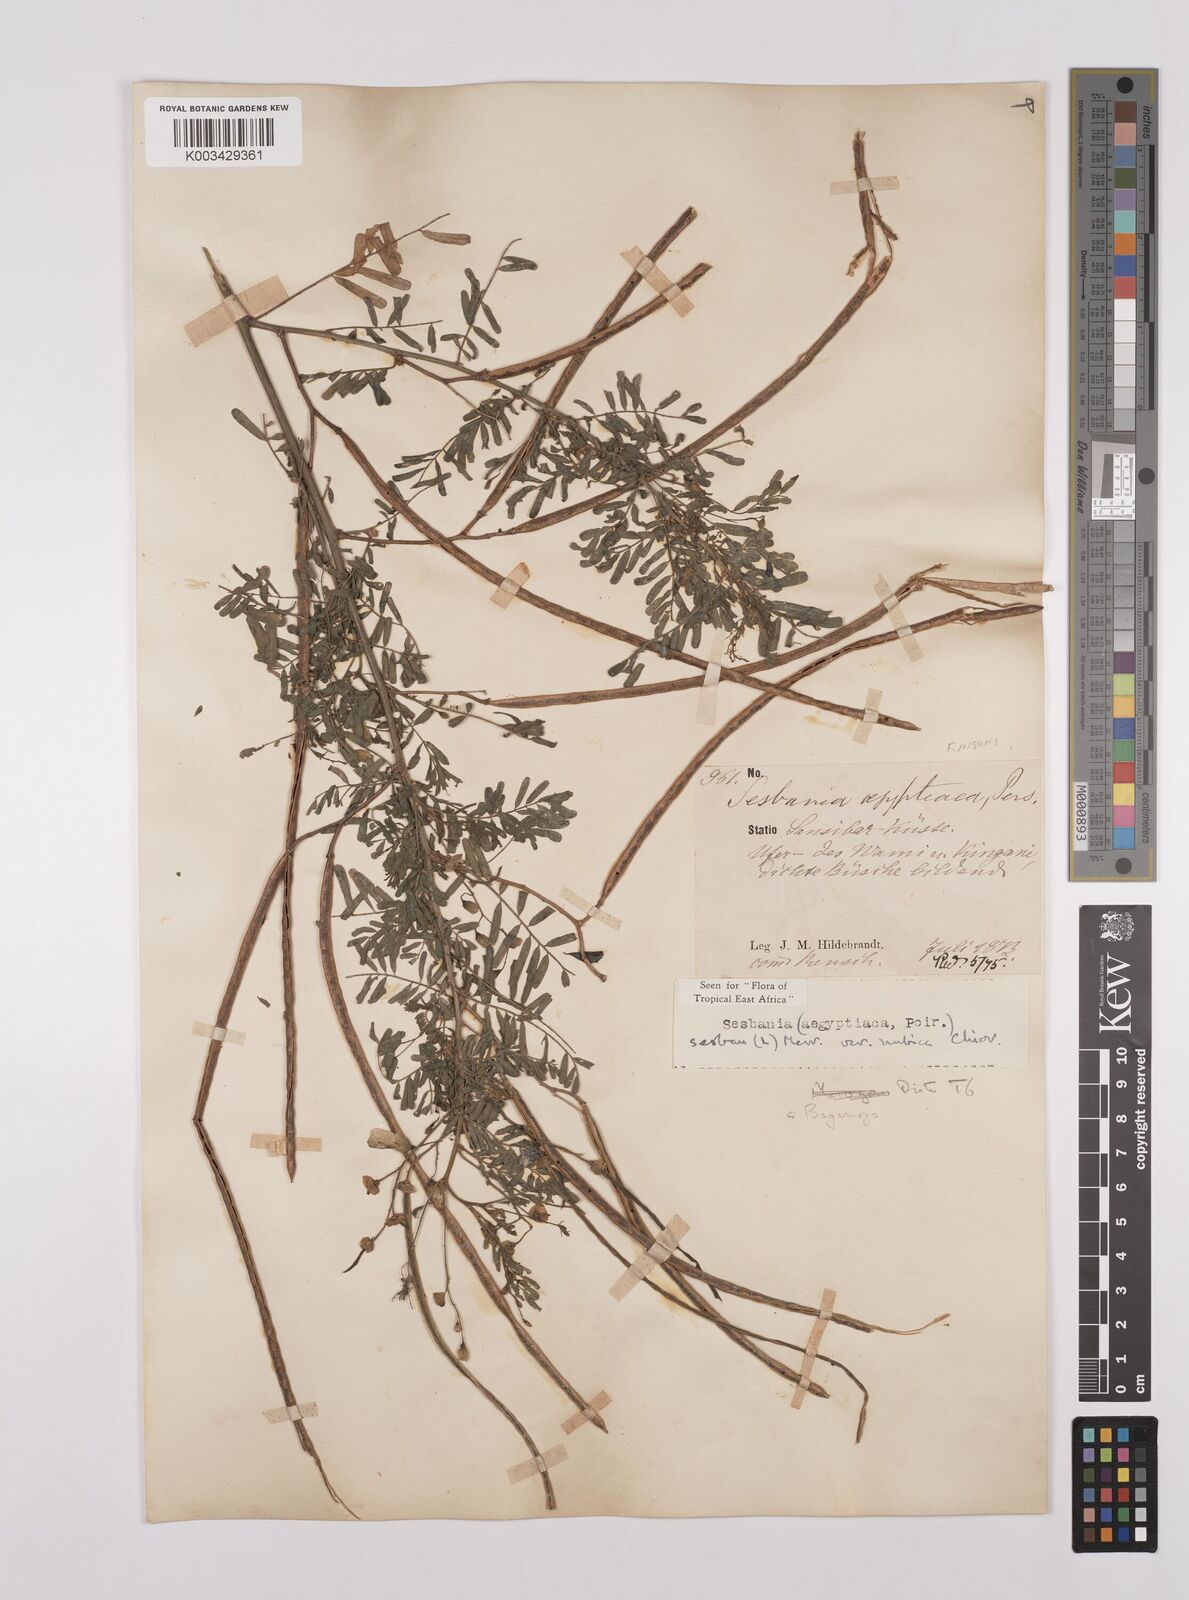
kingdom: Plantae
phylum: Tracheophyta
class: Magnoliopsida
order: Fabales
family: Fabaceae
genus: Sesbania
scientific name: Sesbania sesban
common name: Egyptian sesban
